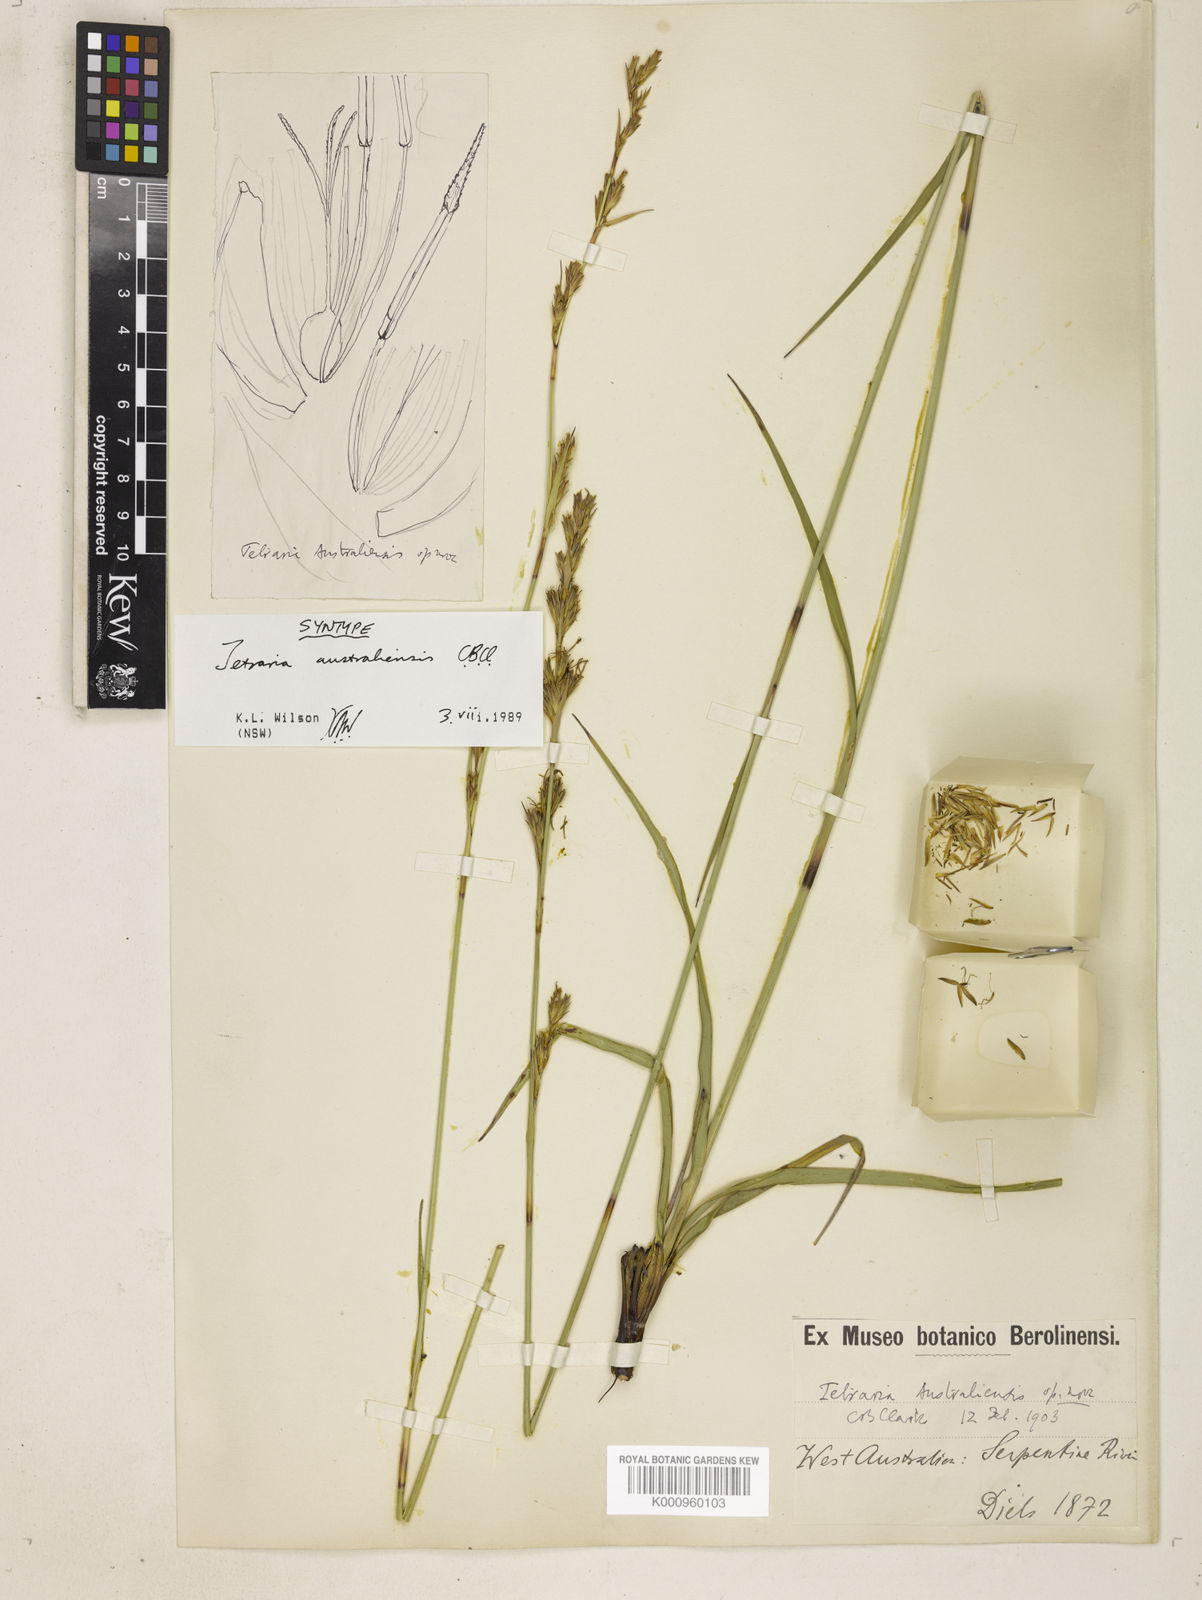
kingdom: Plantae
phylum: Tracheophyta
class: Liliopsida
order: Poales
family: Cyperaceae
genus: Tetraria
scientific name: Tetraria australiensis
